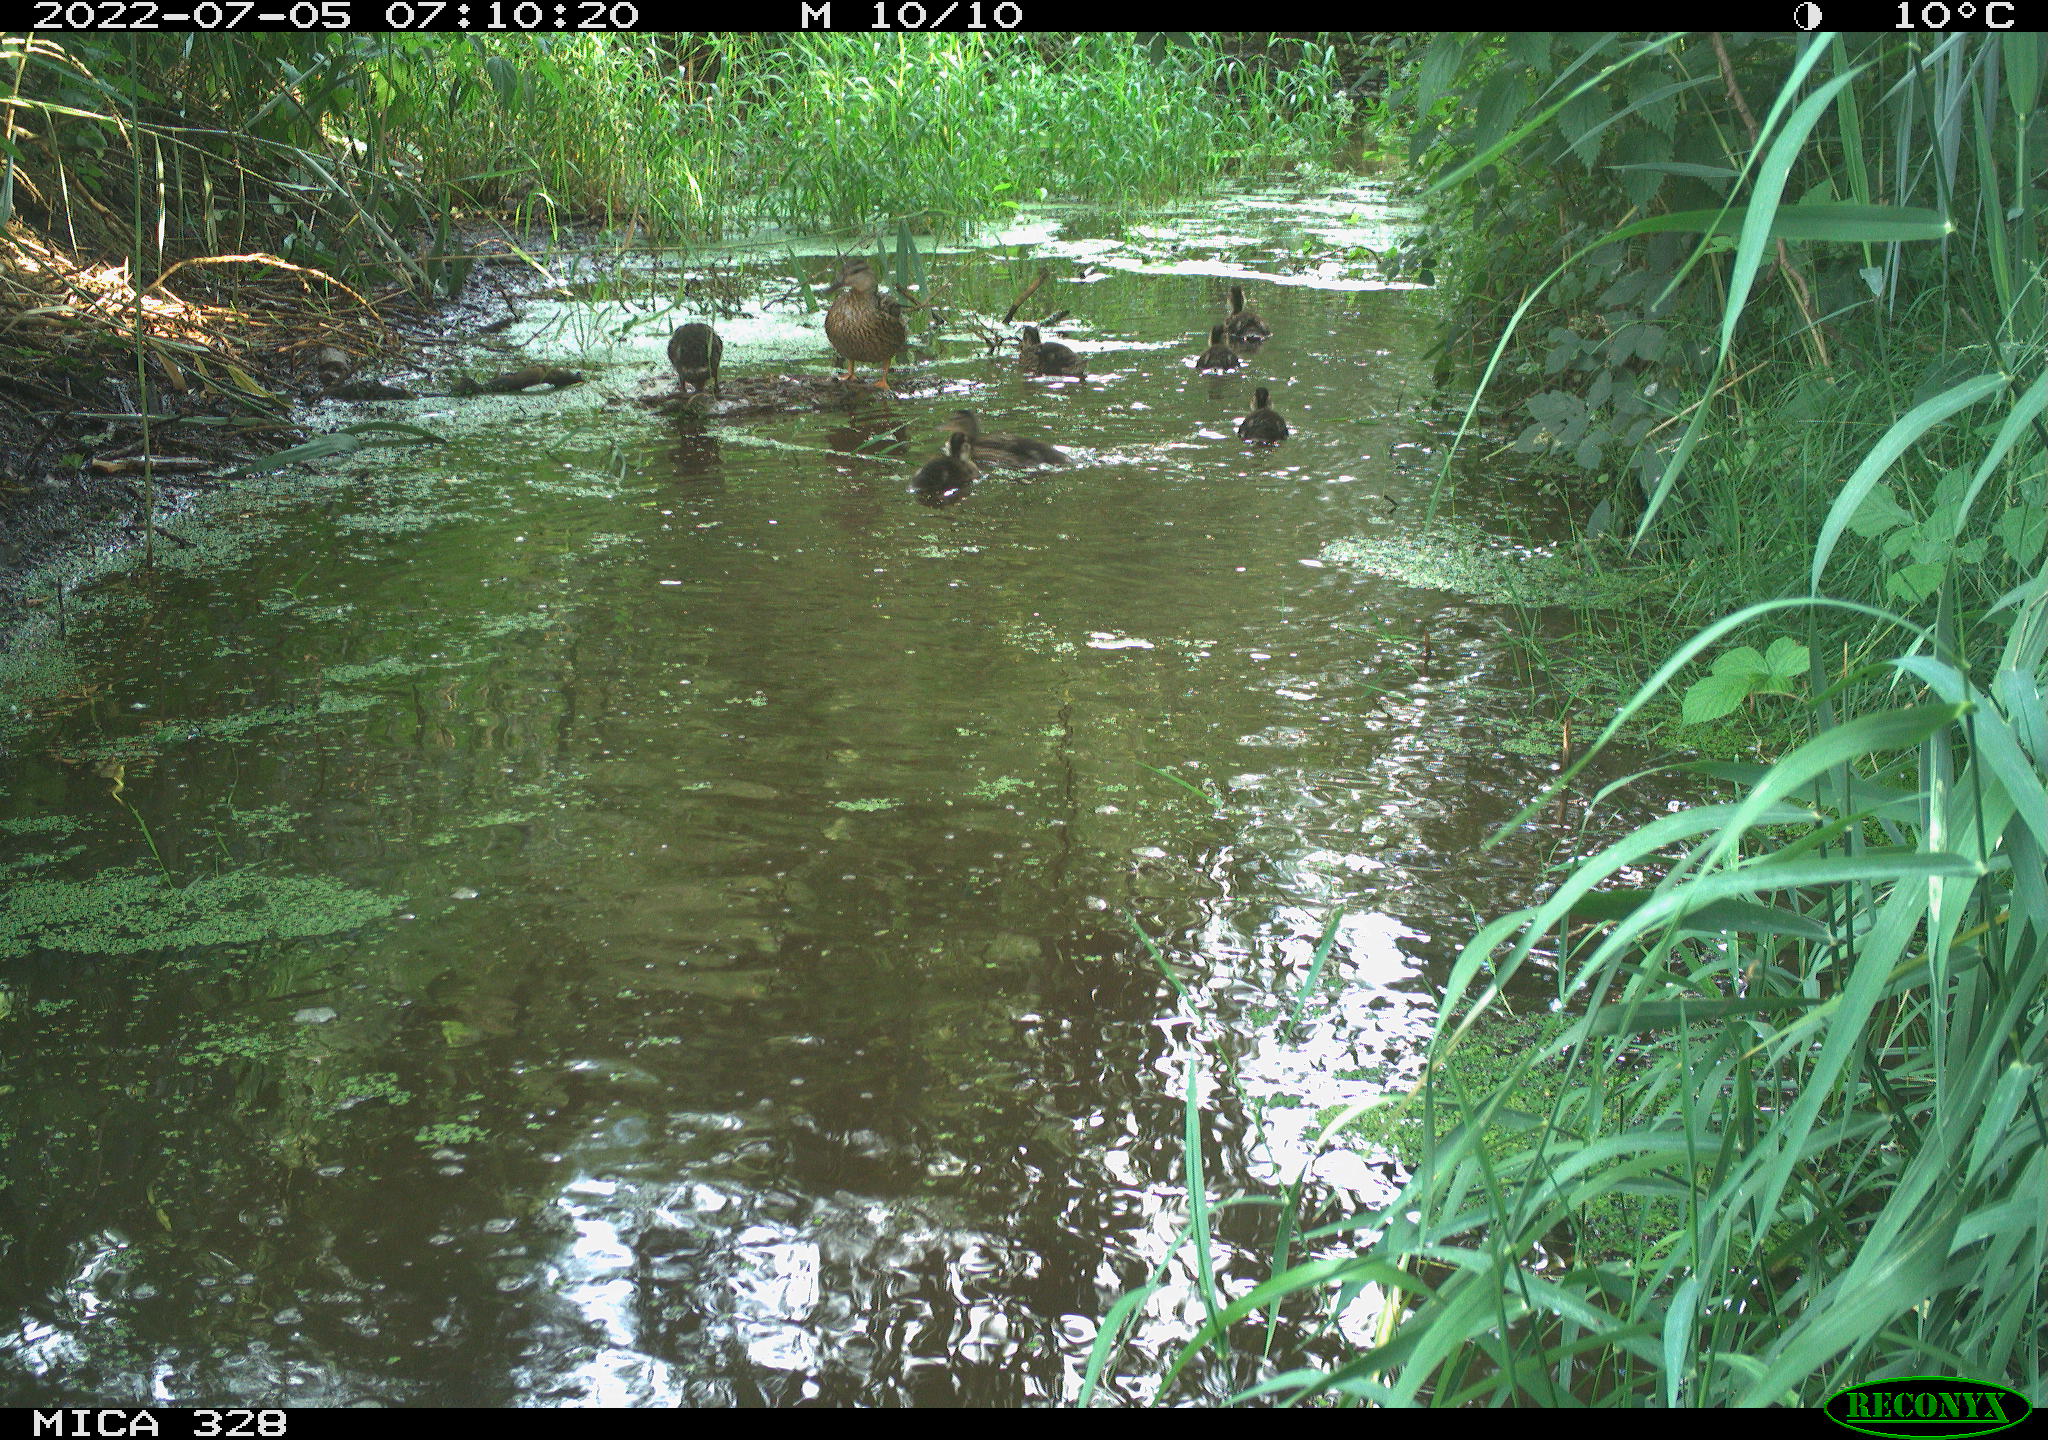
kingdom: Animalia
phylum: Chordata
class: Aves
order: Anseriformes
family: Anatidae
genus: Anas
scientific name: Anas platyrhynchos
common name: Mallard
